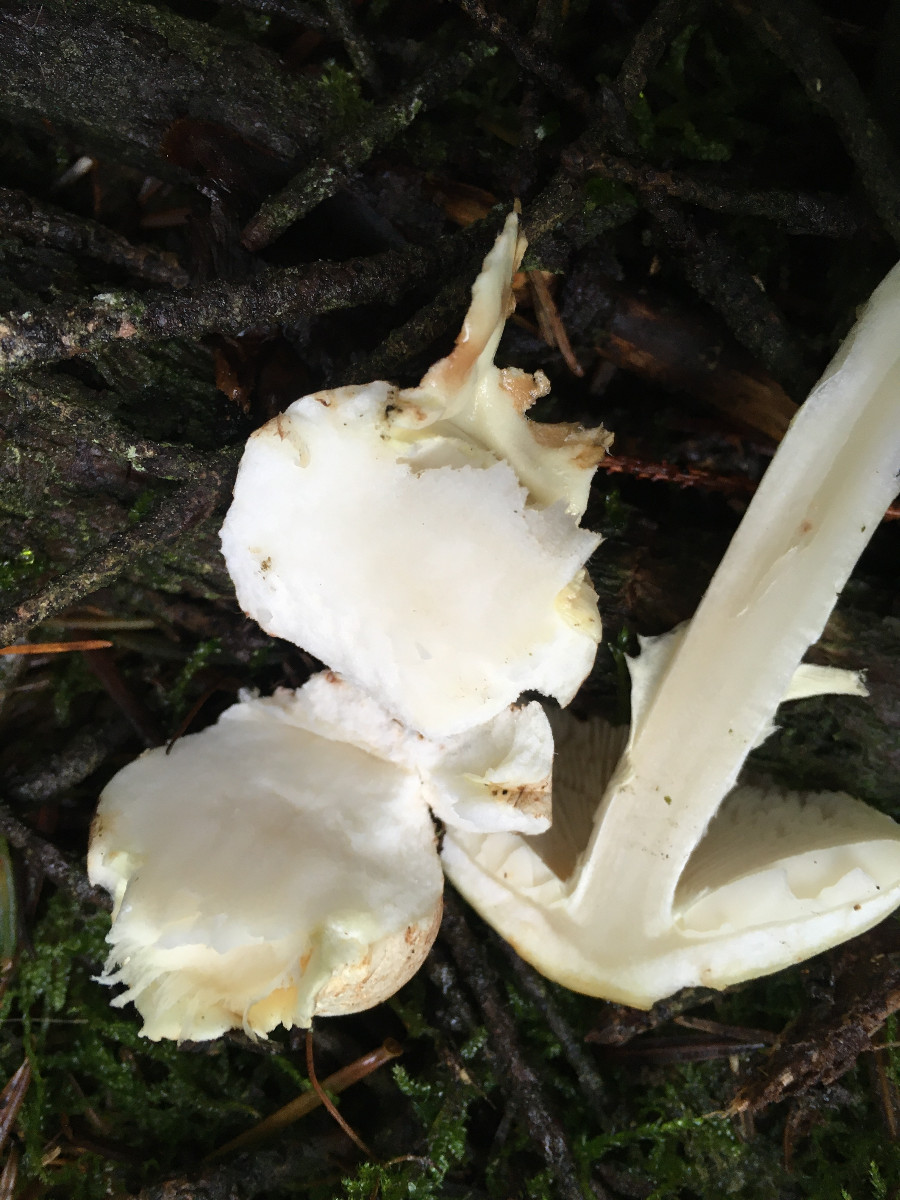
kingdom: Fungi
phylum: Basidiomycota
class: Agaricomycetes
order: Agaricales
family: Amanitaceae
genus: Amanita
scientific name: Amanita
